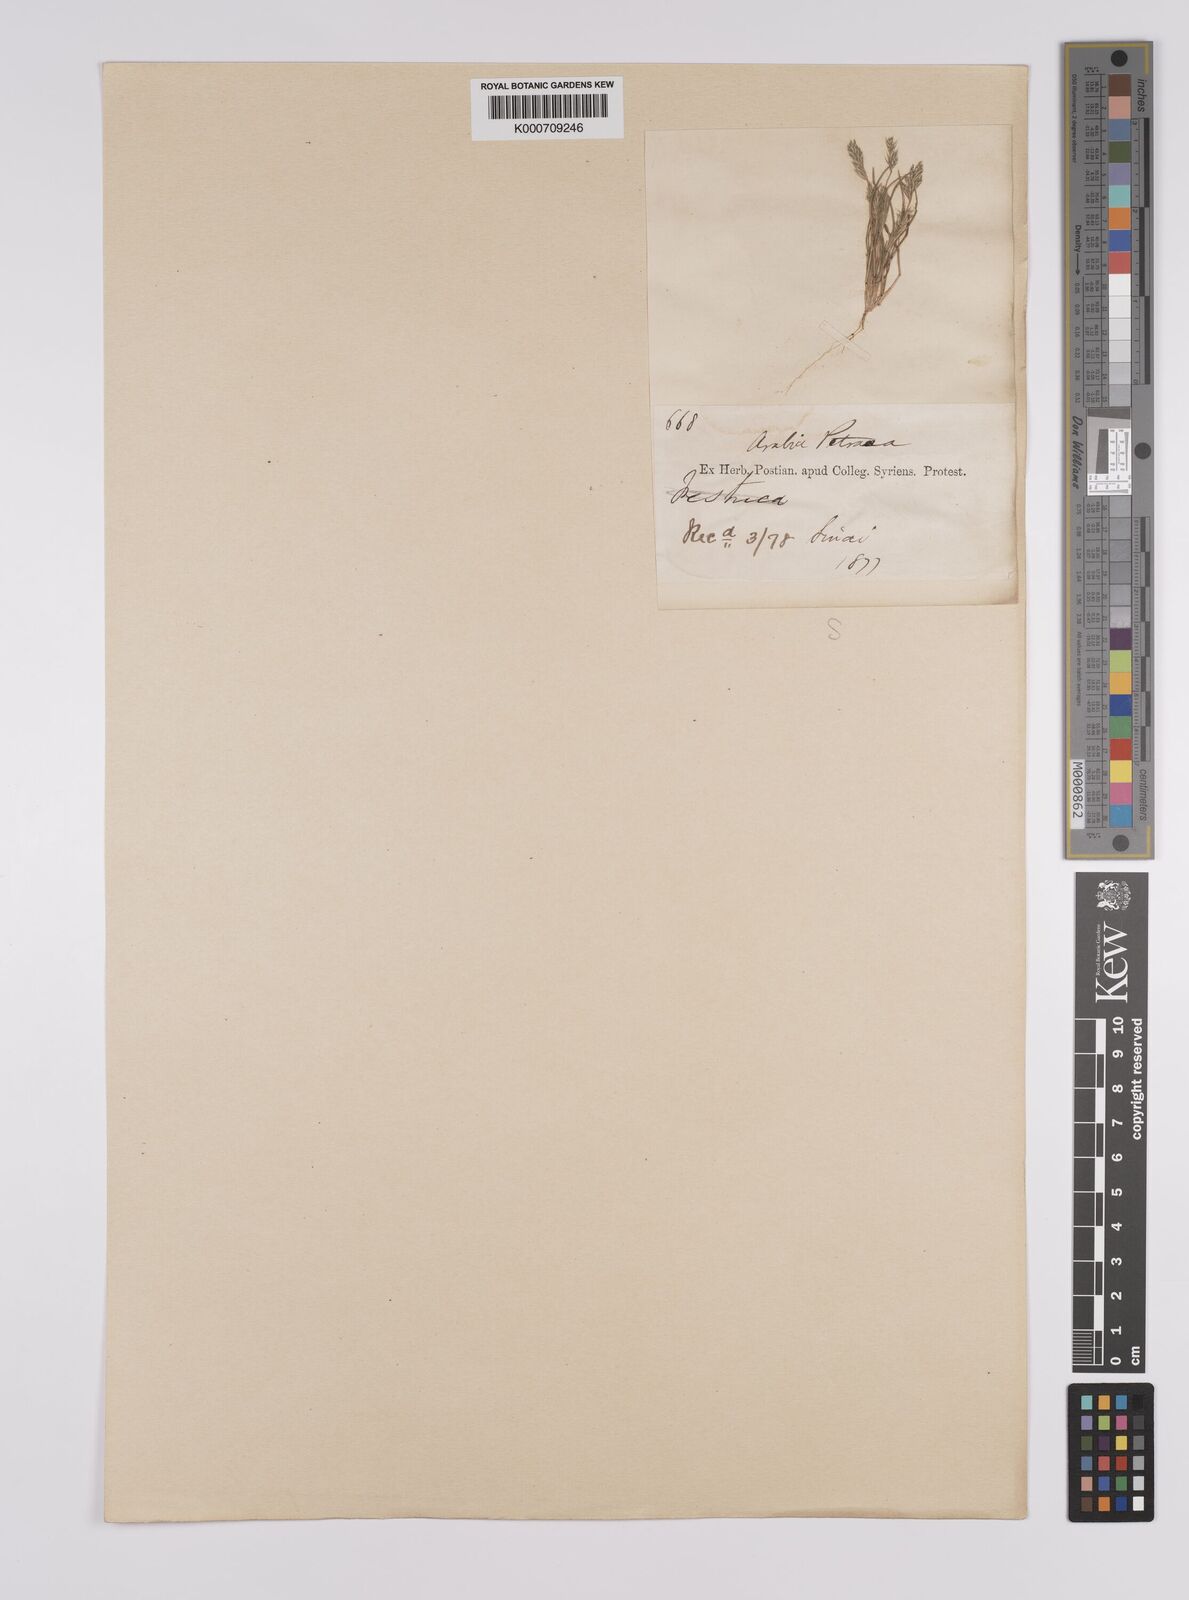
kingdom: Plantae
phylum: Tracheophyta
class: Liliopsida
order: Poales
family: Poaceae
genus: Schismus
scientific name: Schismus barbatus
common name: Kelch-grass
